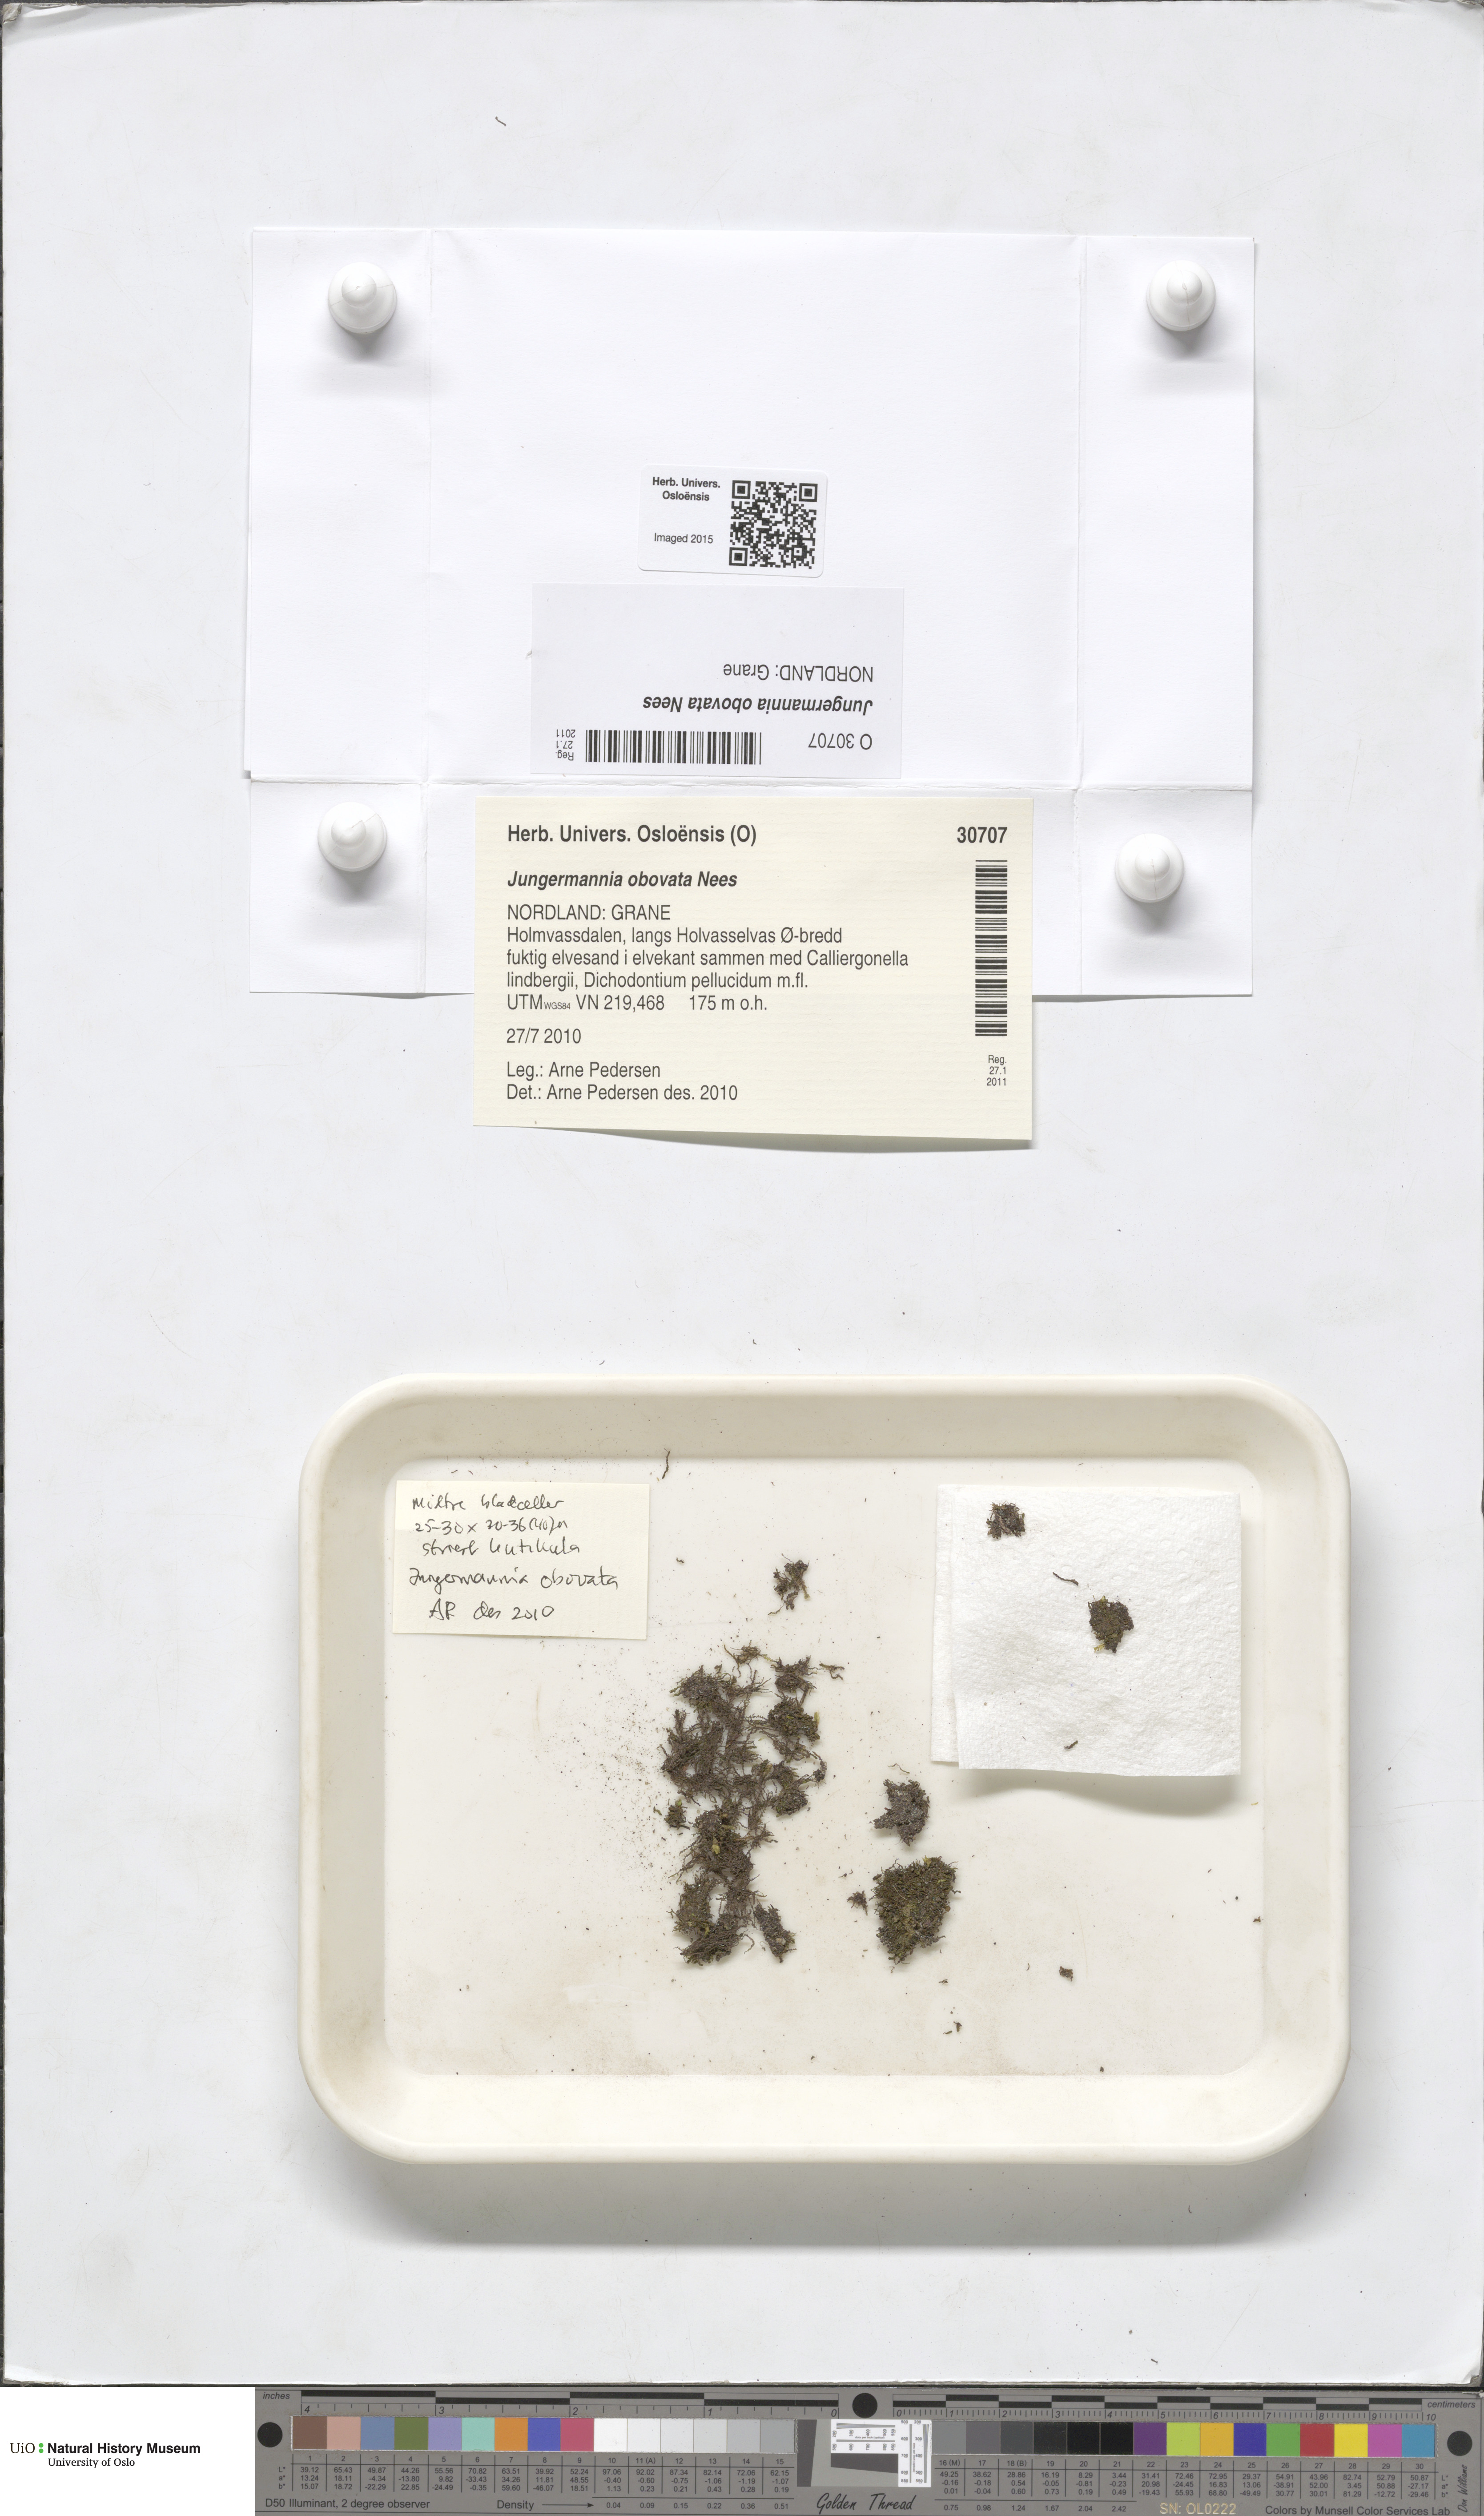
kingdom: Plantae
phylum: Marchantiophyta
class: Jungermanniopsida
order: Jungermanniales
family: Solenostomataceae
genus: Solenostoma
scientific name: Solenostoma obovatum
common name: Egg flapwort
